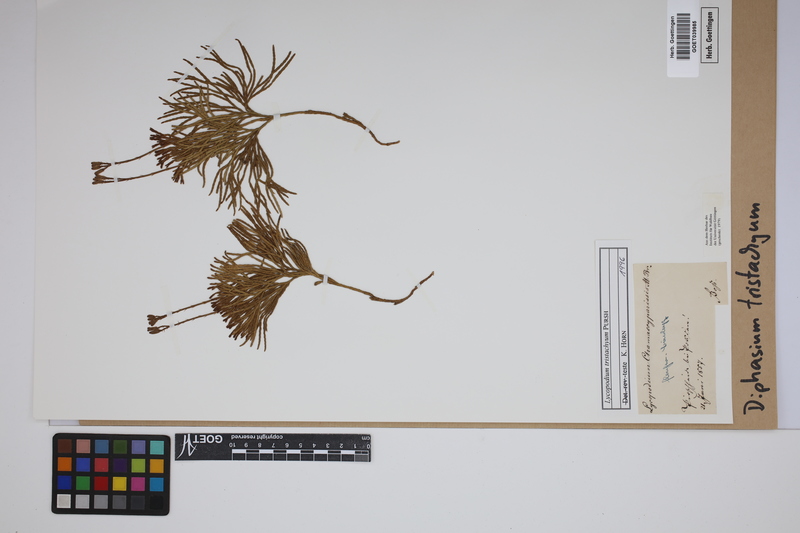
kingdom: Plantae
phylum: Tracheophyta
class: Lycopodiopsida
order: Lycopodiales
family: Lycopodiaceae
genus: Diphasiastrum
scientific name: Diphasiastrum tristachyum
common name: Blue ground-cedar
